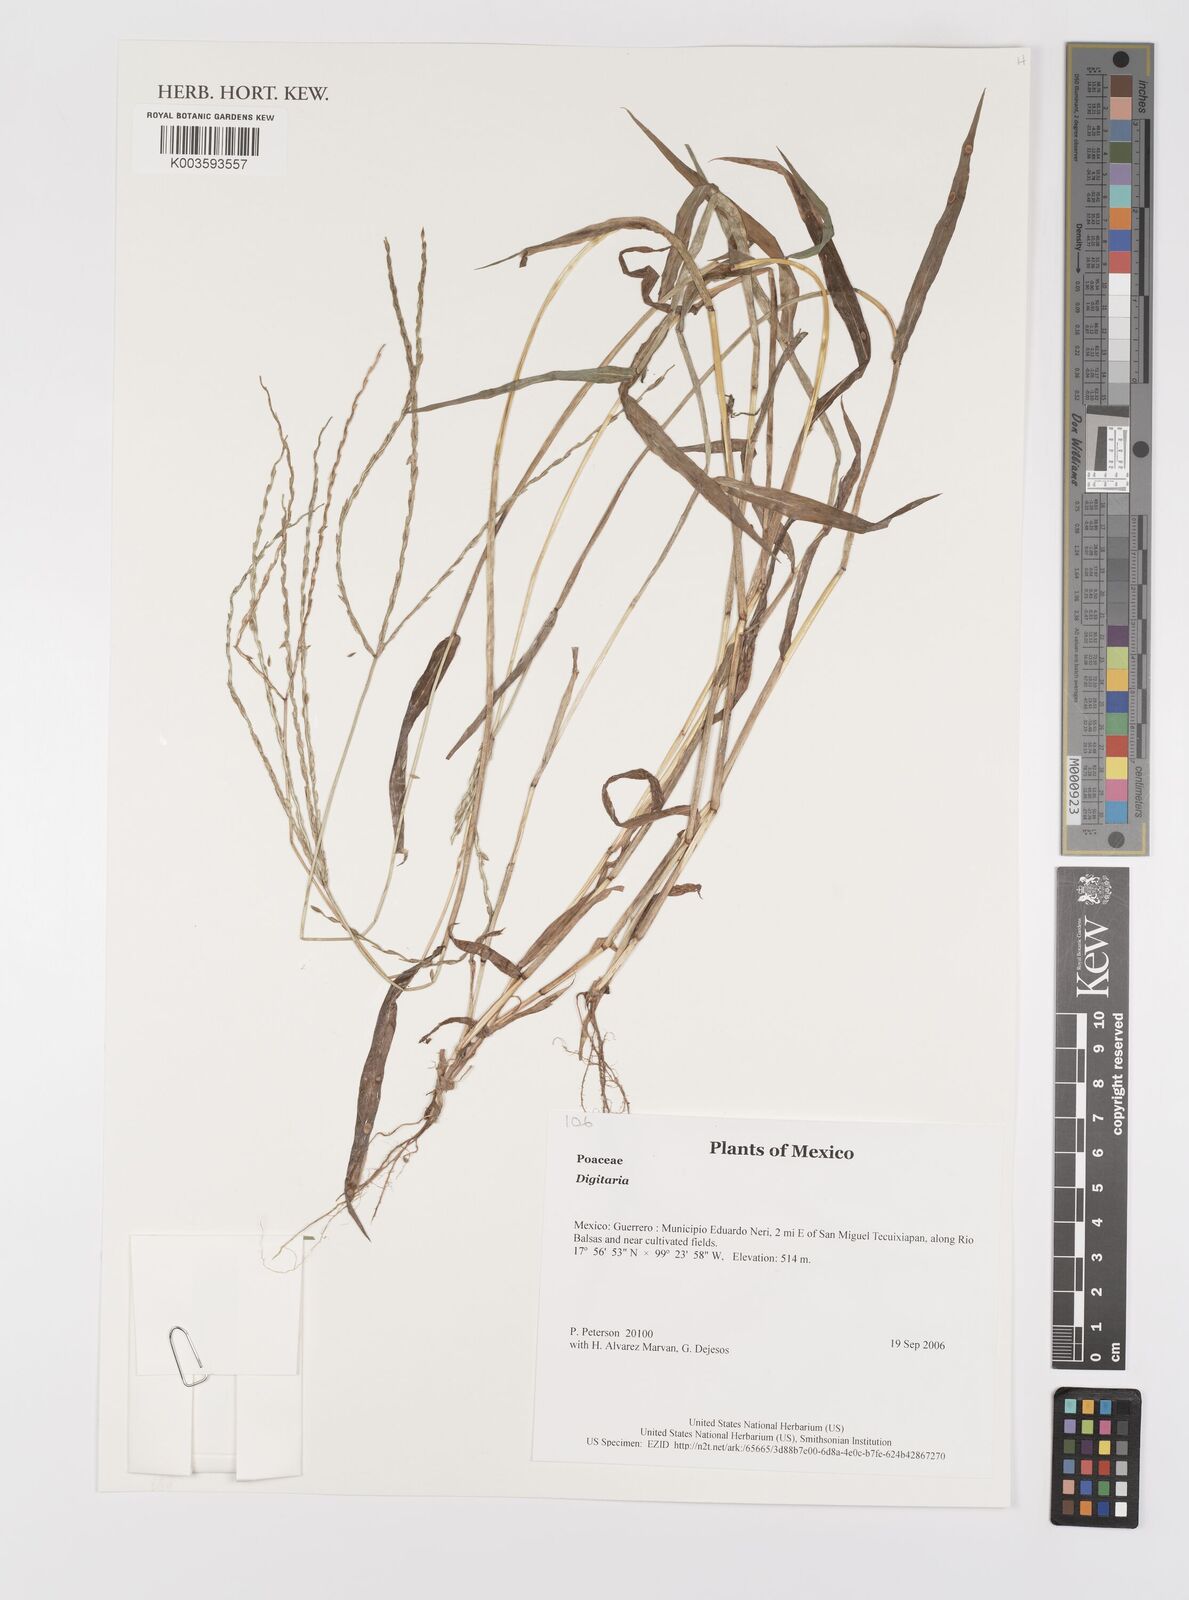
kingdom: Plantae
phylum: Tracheophyta
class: Liliopsida
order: Poales
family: Poaceae
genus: Digitaria
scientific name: Digitaria spec
